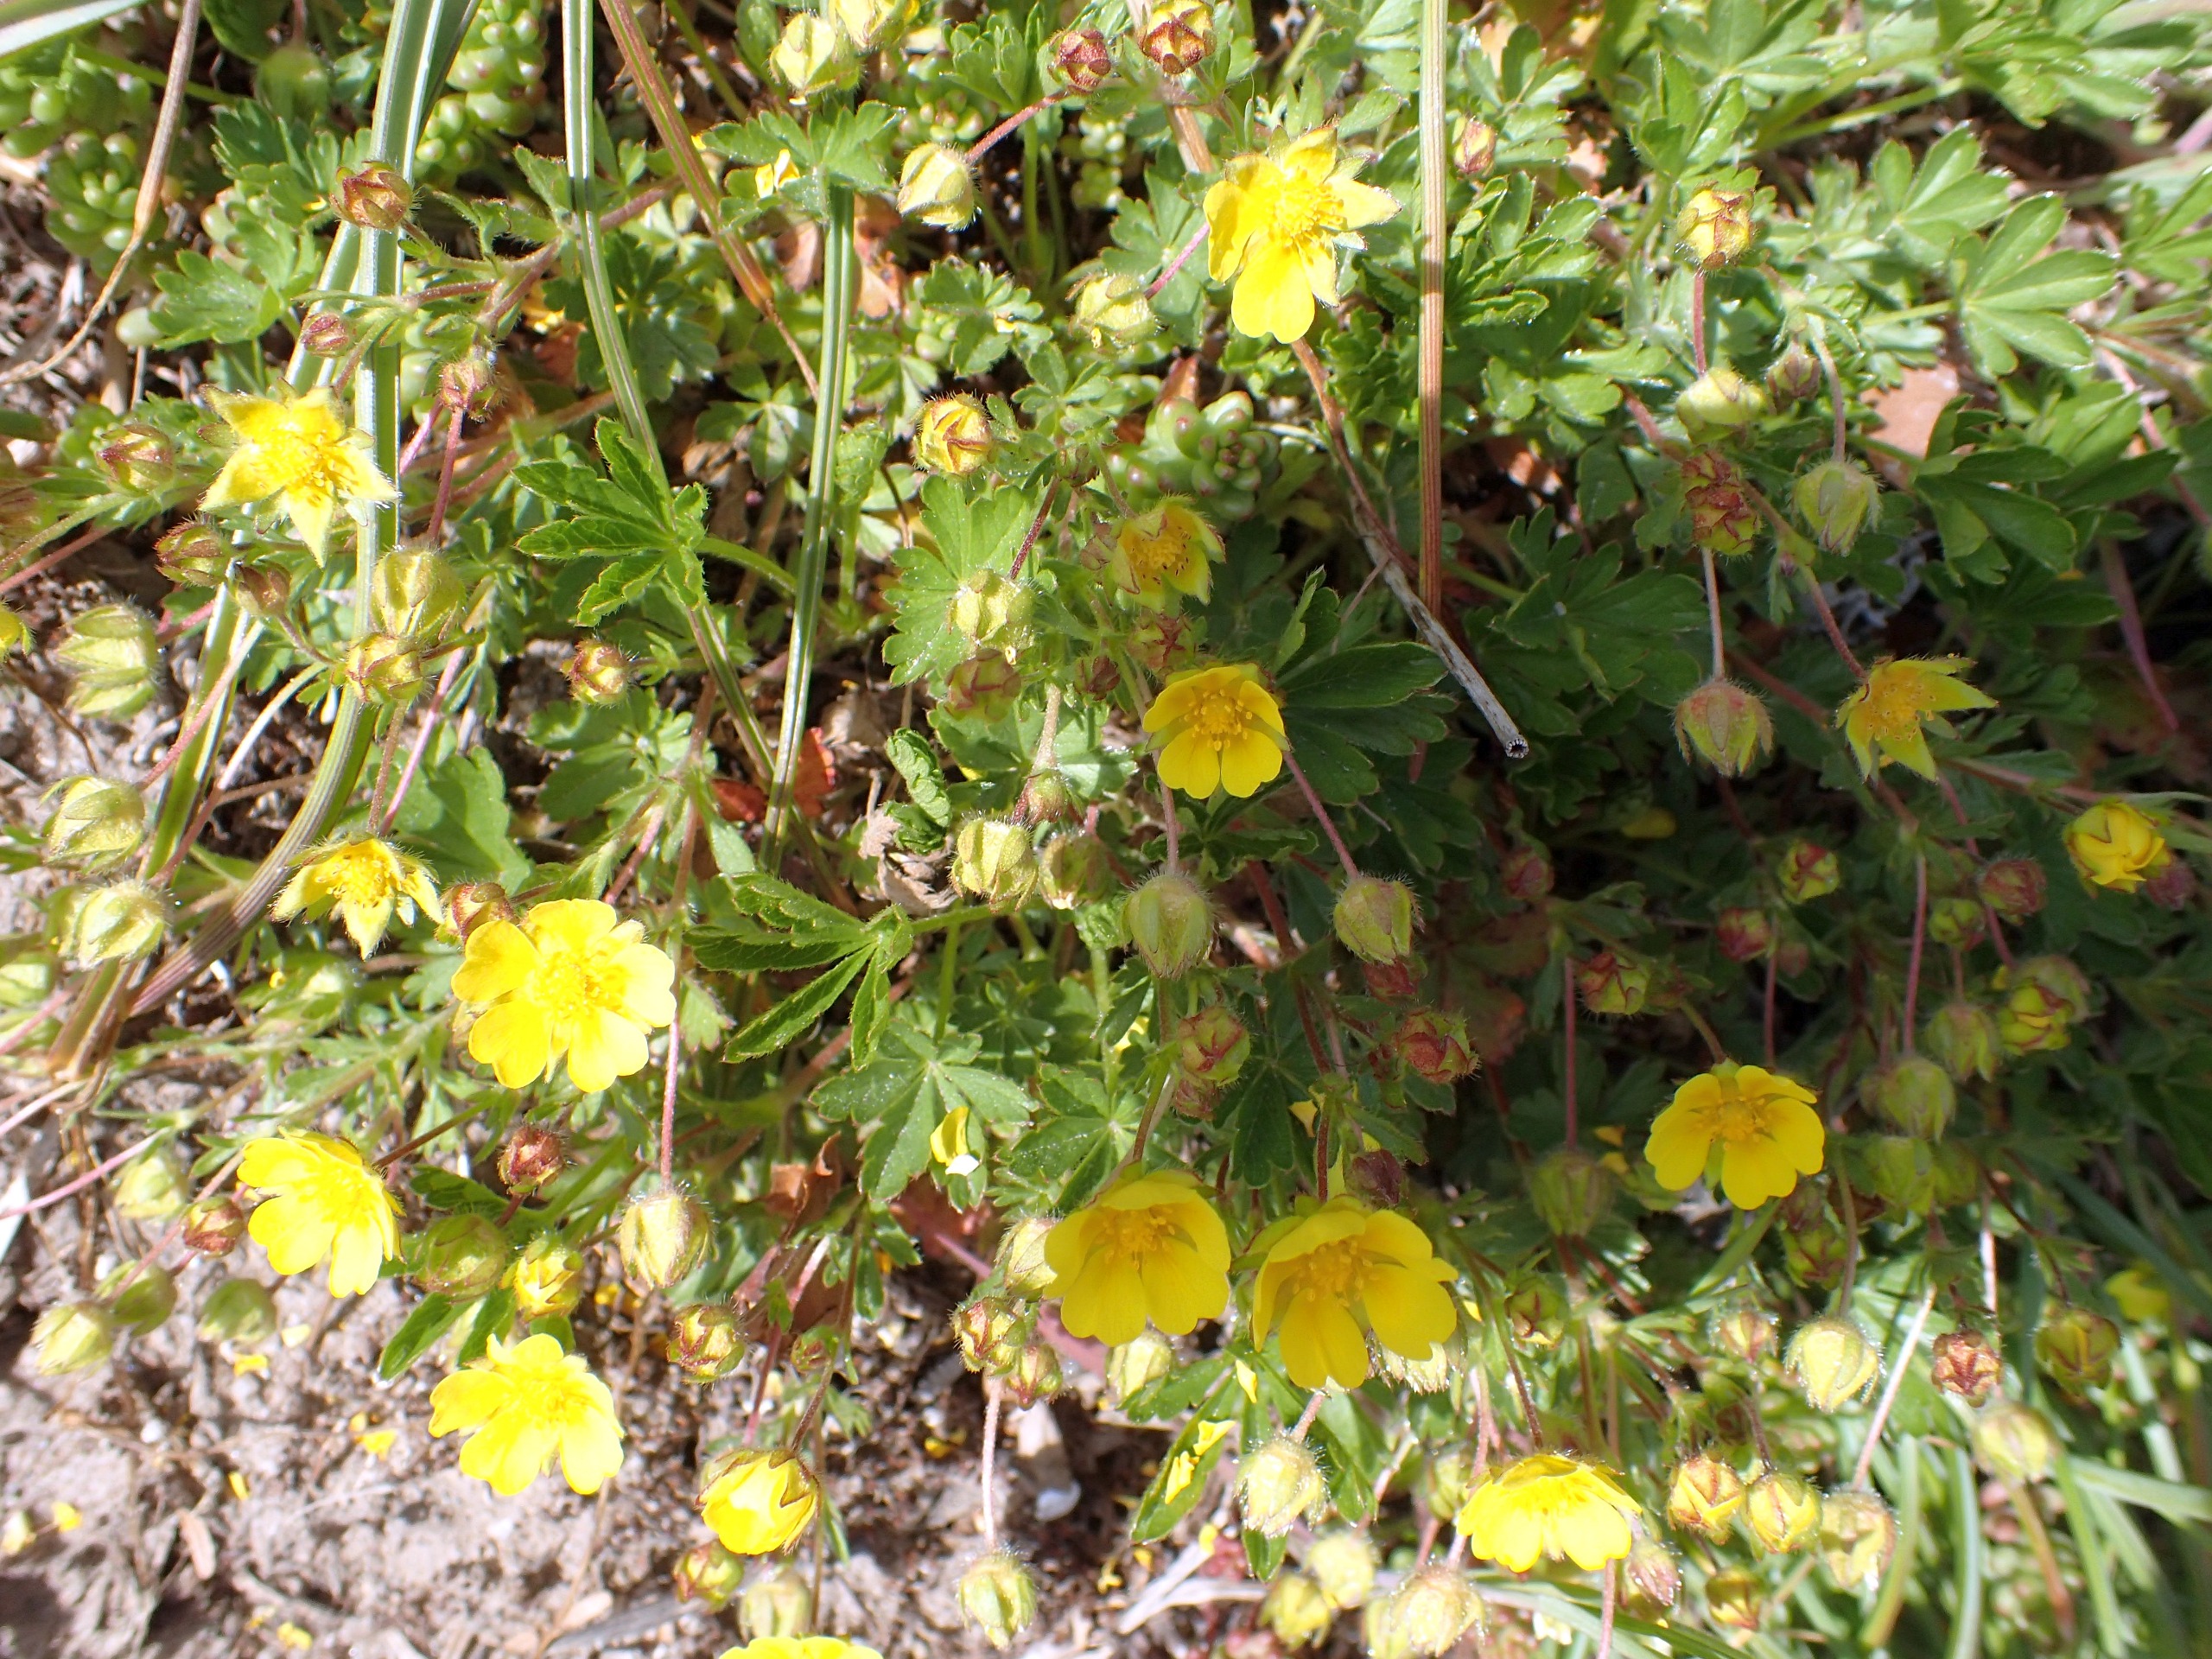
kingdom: Plantae
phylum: Tracheophyta
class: Magnoliopsida
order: Rosales
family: Rosaceae
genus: Potentilla
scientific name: Potentilla verna
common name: Vår-potentil
